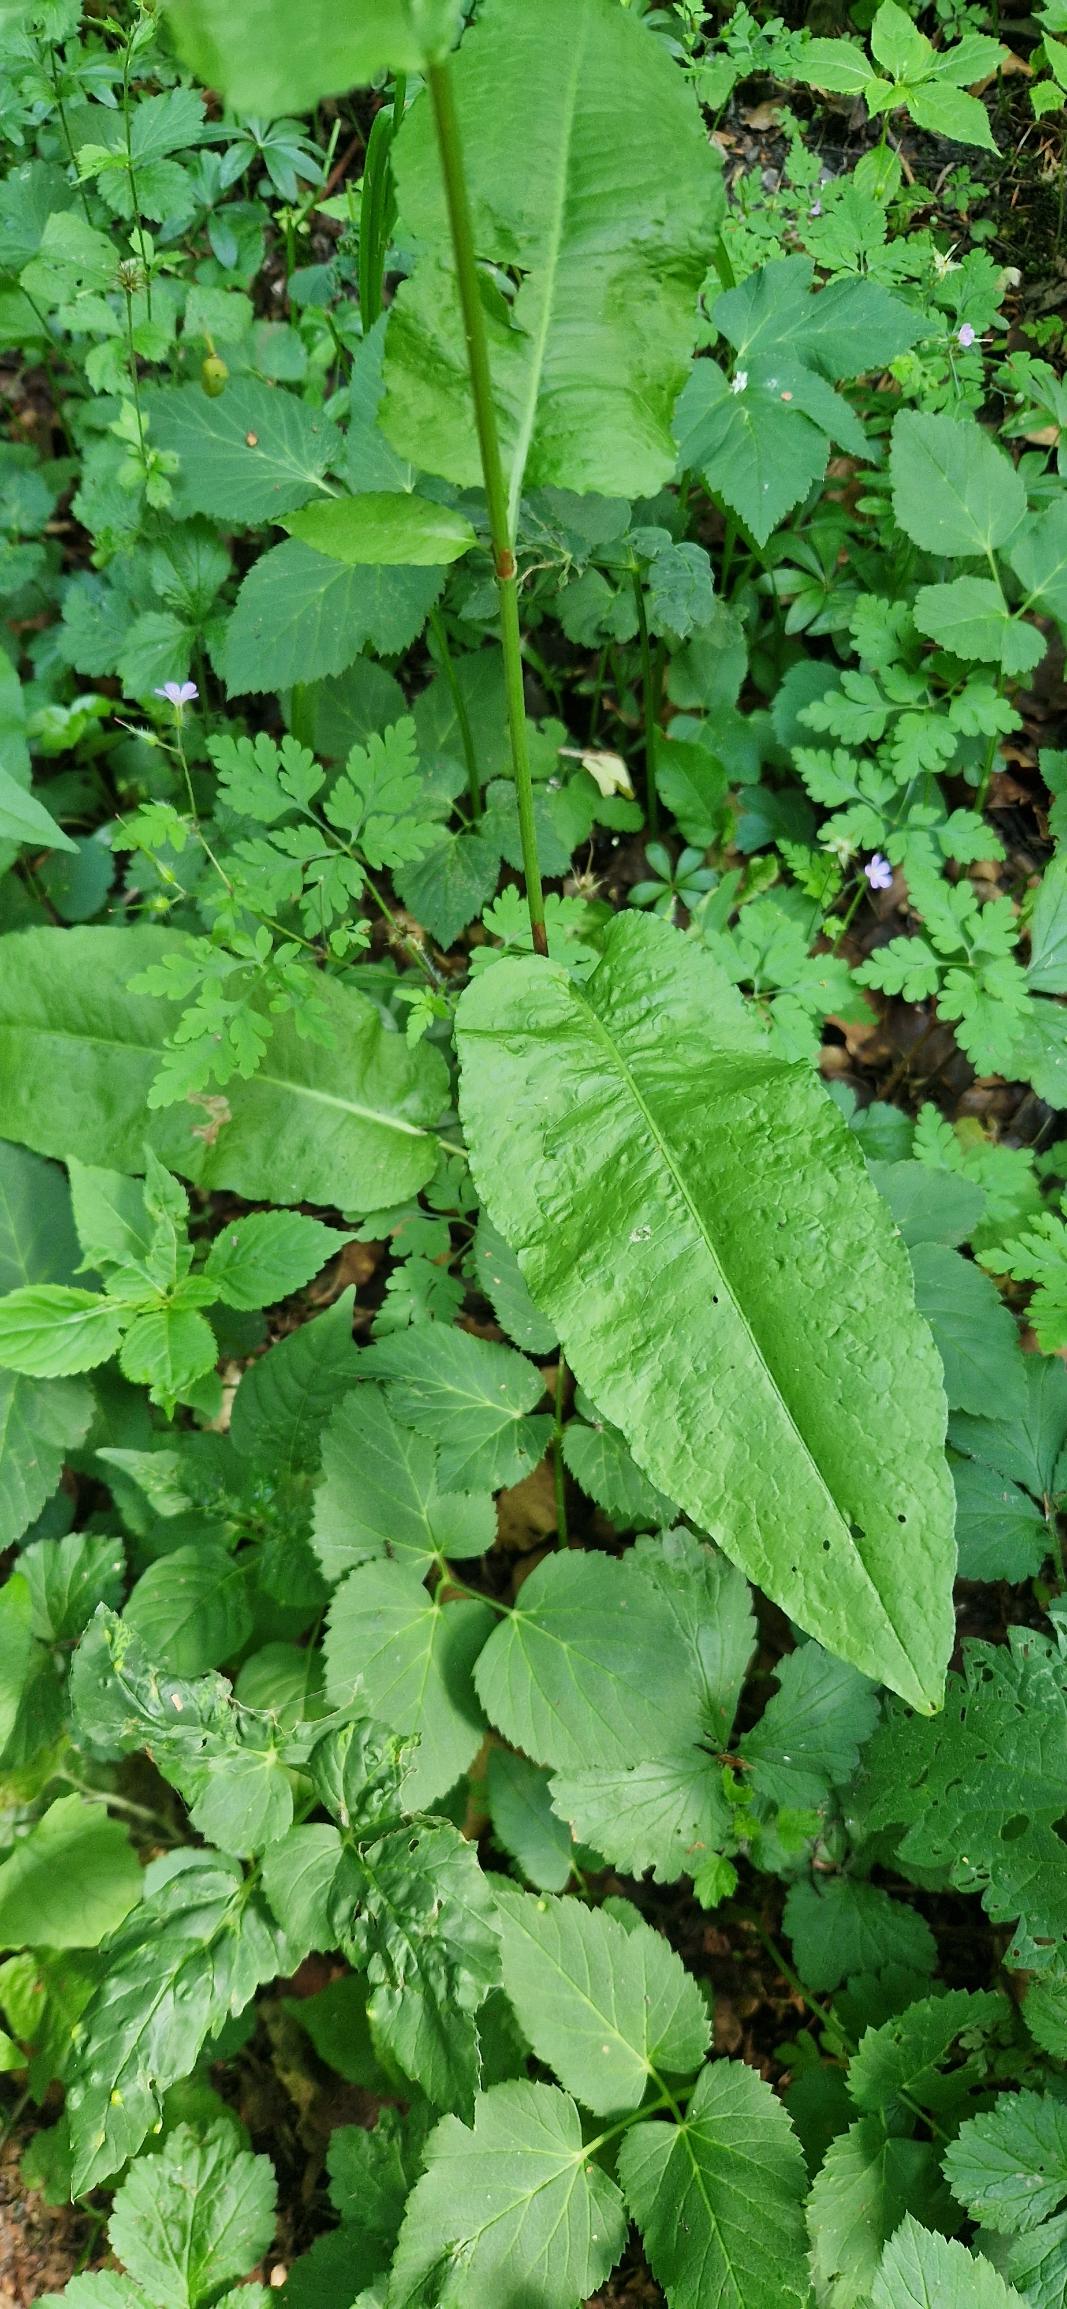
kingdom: Plantae
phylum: Tracheophyta
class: Magnoliopsida
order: Caryophyllales
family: Polygonaceae
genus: Rumex
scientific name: Rumex sanguineus
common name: Skov-skræppe
